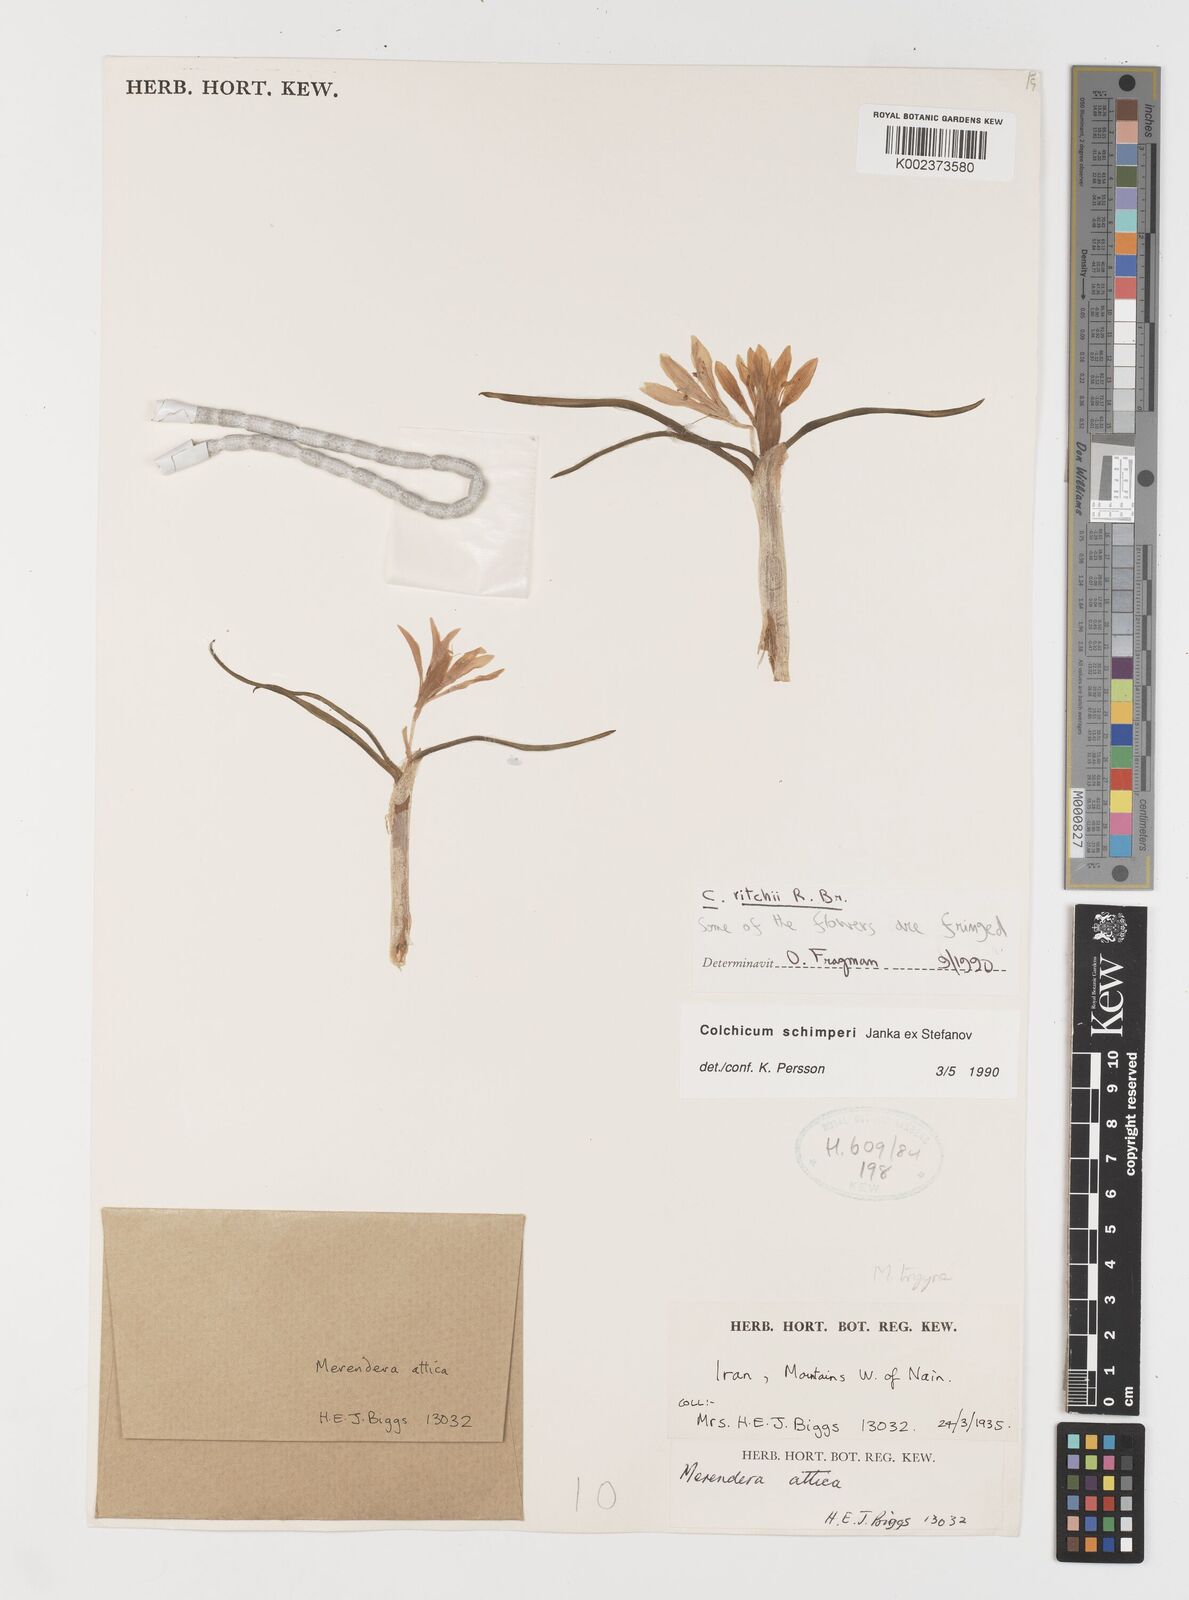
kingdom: Plantae
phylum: Tracheophyta
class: Liliopsida
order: Liliales
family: Colchicaceae
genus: Colchicum
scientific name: Colchicum schimperi
